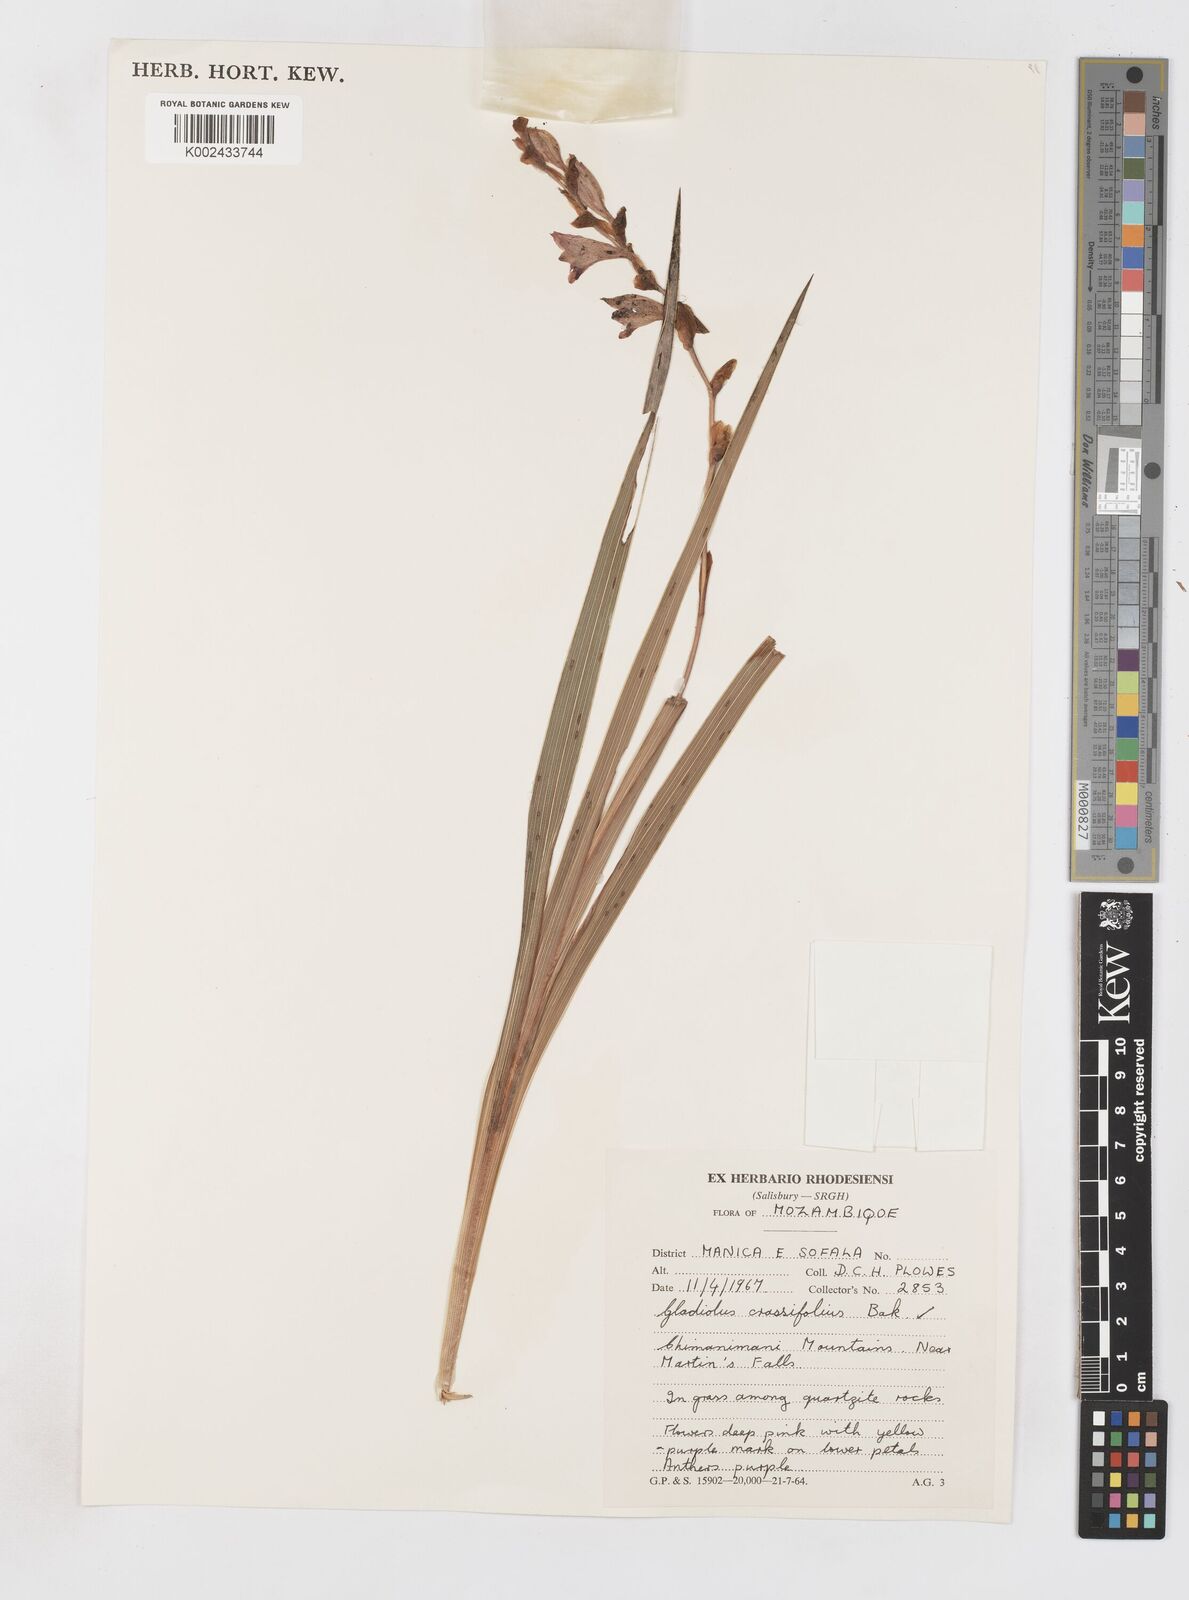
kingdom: Plantae
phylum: Tracheophyta
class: Liliopsida
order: Asparagales
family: Iridaceae
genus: Gladiolus
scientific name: Gladiolus crassifolius
